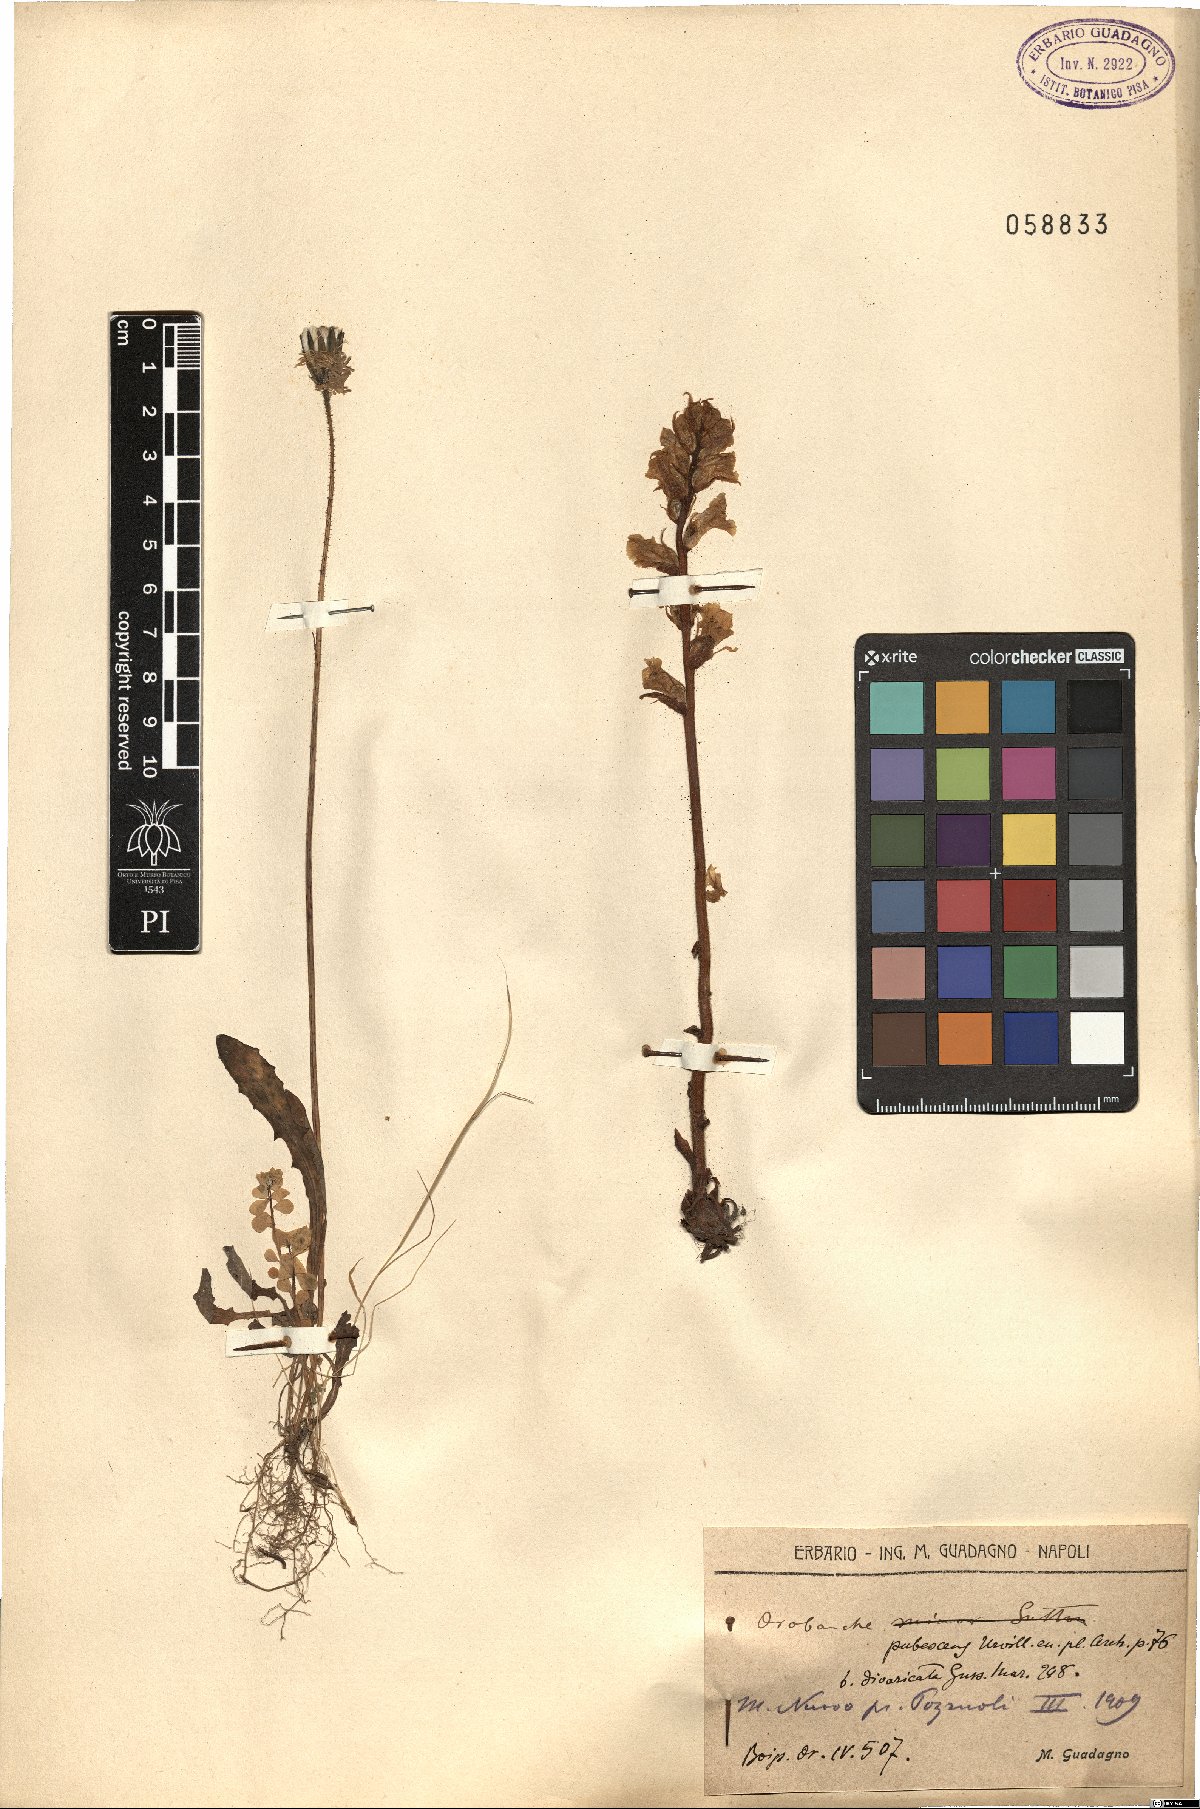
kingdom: Plantae
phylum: Tracheophyta
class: Magnoliopsida
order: Lamiales
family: Orobanchaceae
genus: Orobanche
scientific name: Orobanche canescens
